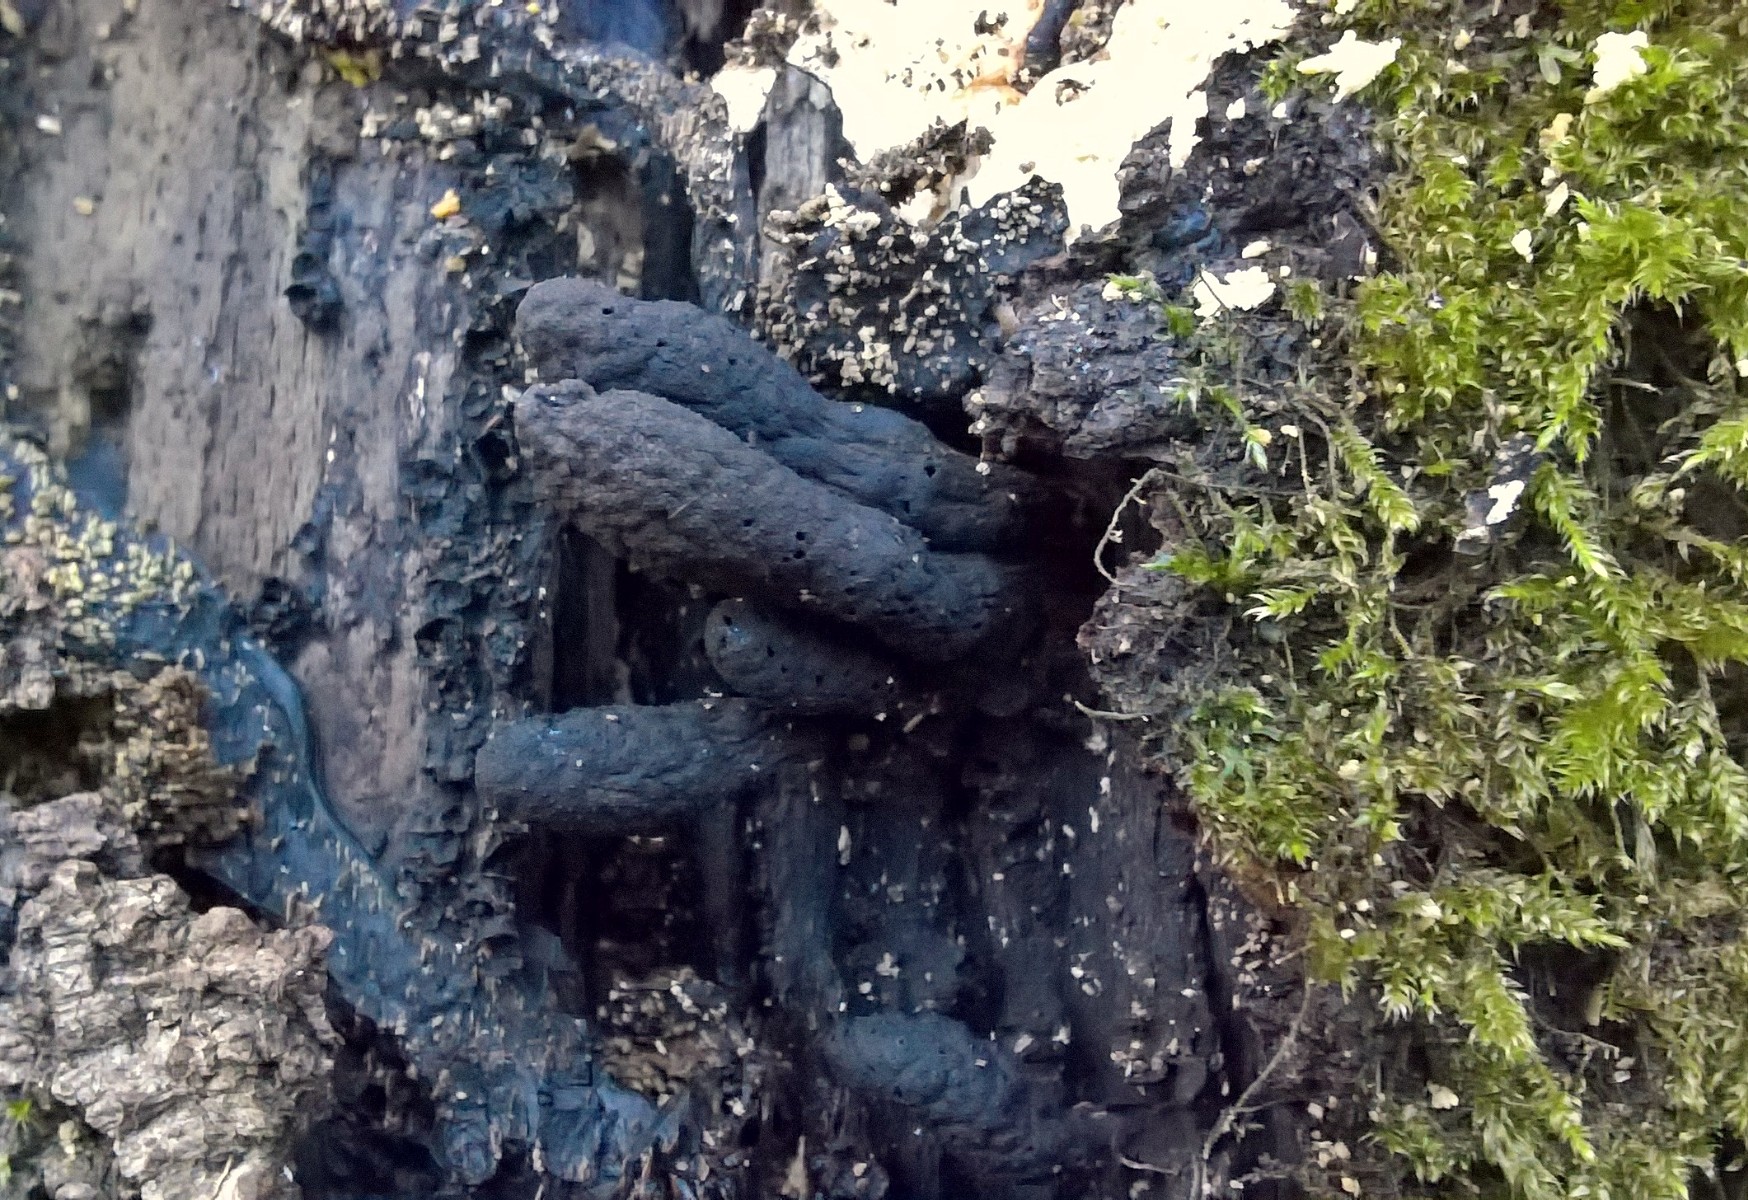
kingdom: Fungi
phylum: Ascomycota
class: Sordariomycetes
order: Xylariales
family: Xylariaceae
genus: Xylaria
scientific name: Xylaria polymorpha
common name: kølle-stødsvamp
